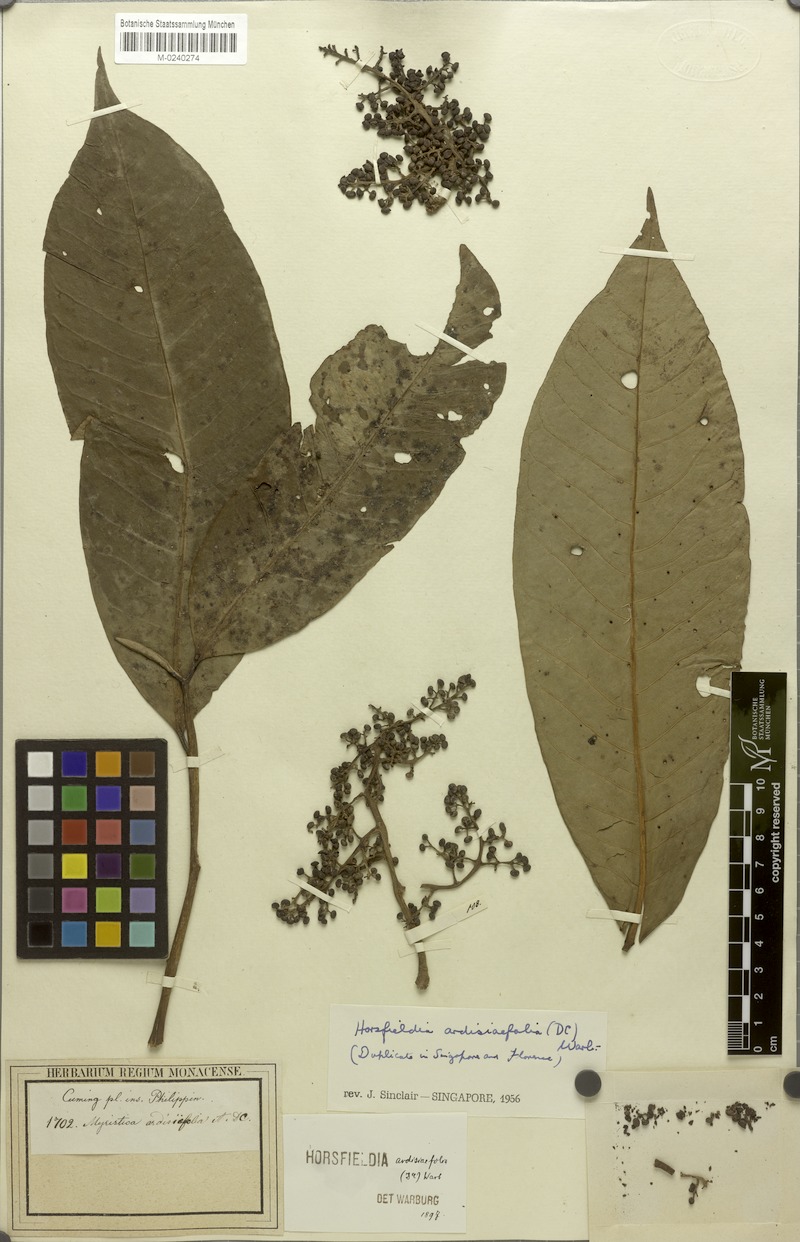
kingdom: Plantae
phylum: Tracheophyta
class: Magnoliopsida
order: Magnoliales
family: Myristicaceae
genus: Horsfieldia
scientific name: Horsfieldia ardisiifolia
